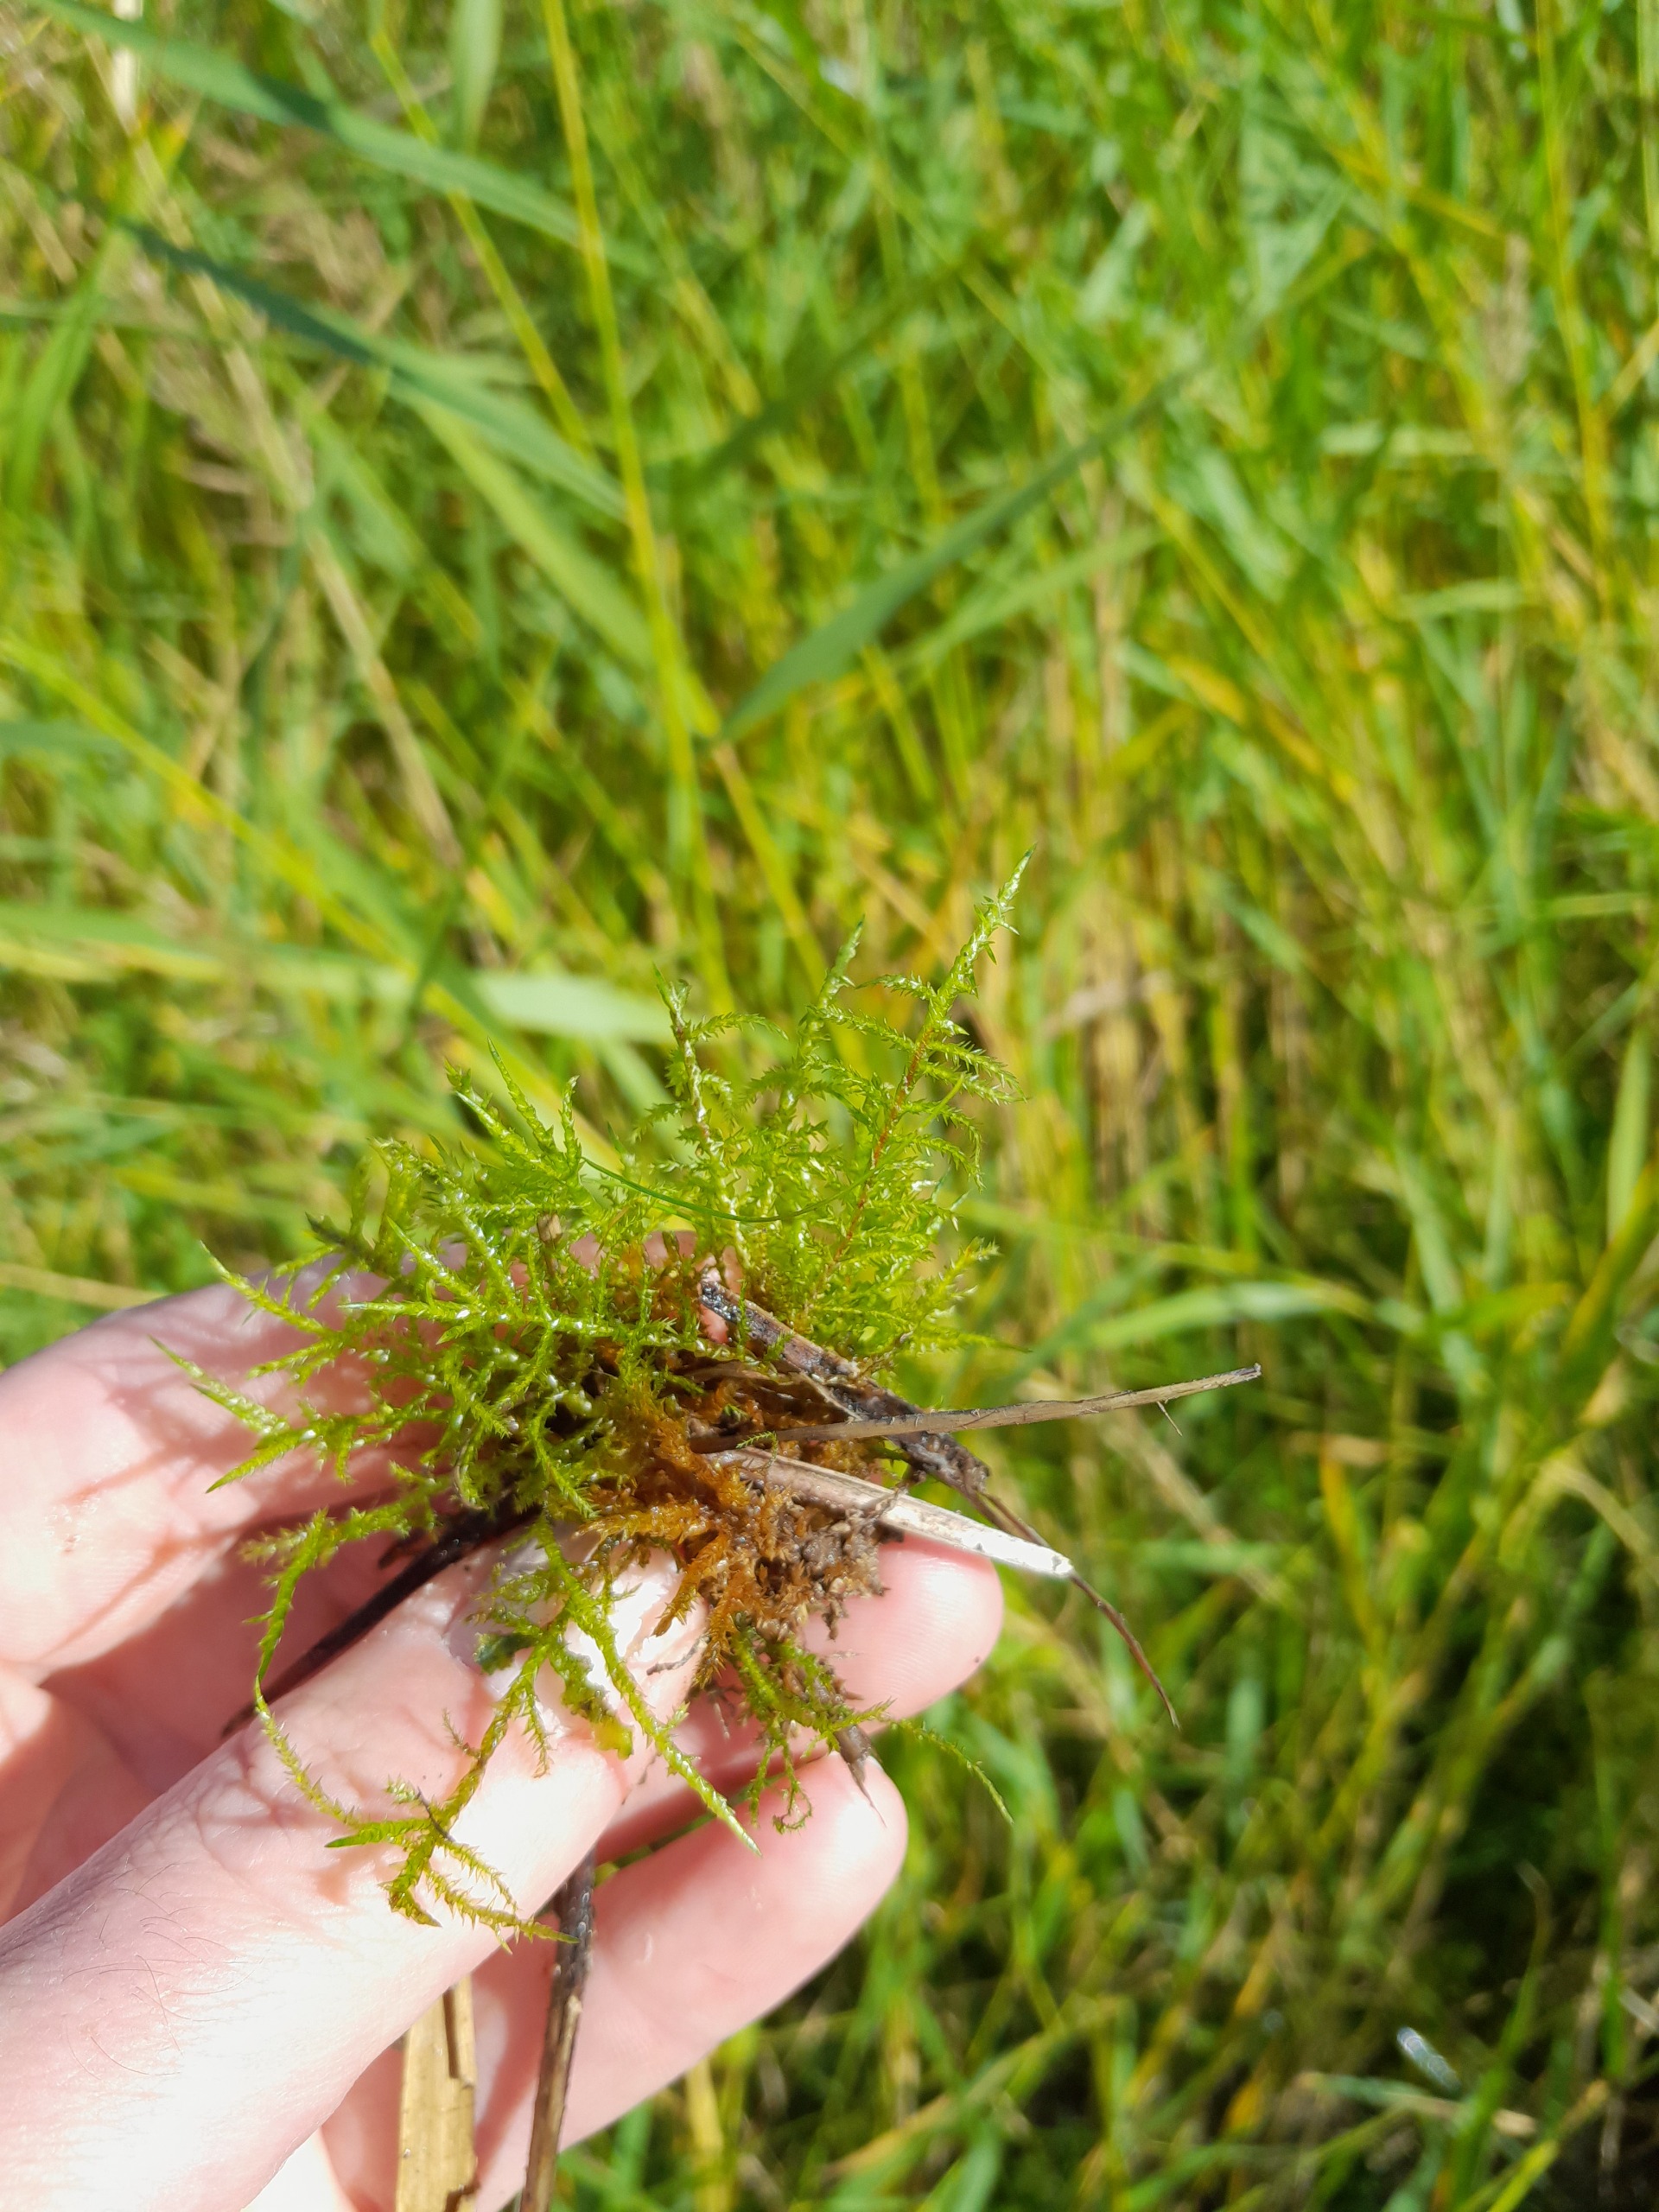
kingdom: Plantae
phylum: Bryophyta
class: Bryopsida
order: Hypnales
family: Pylaisiaceae
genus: Calliergonella
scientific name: Calliergonella cuspidata
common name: Spids spydmos
